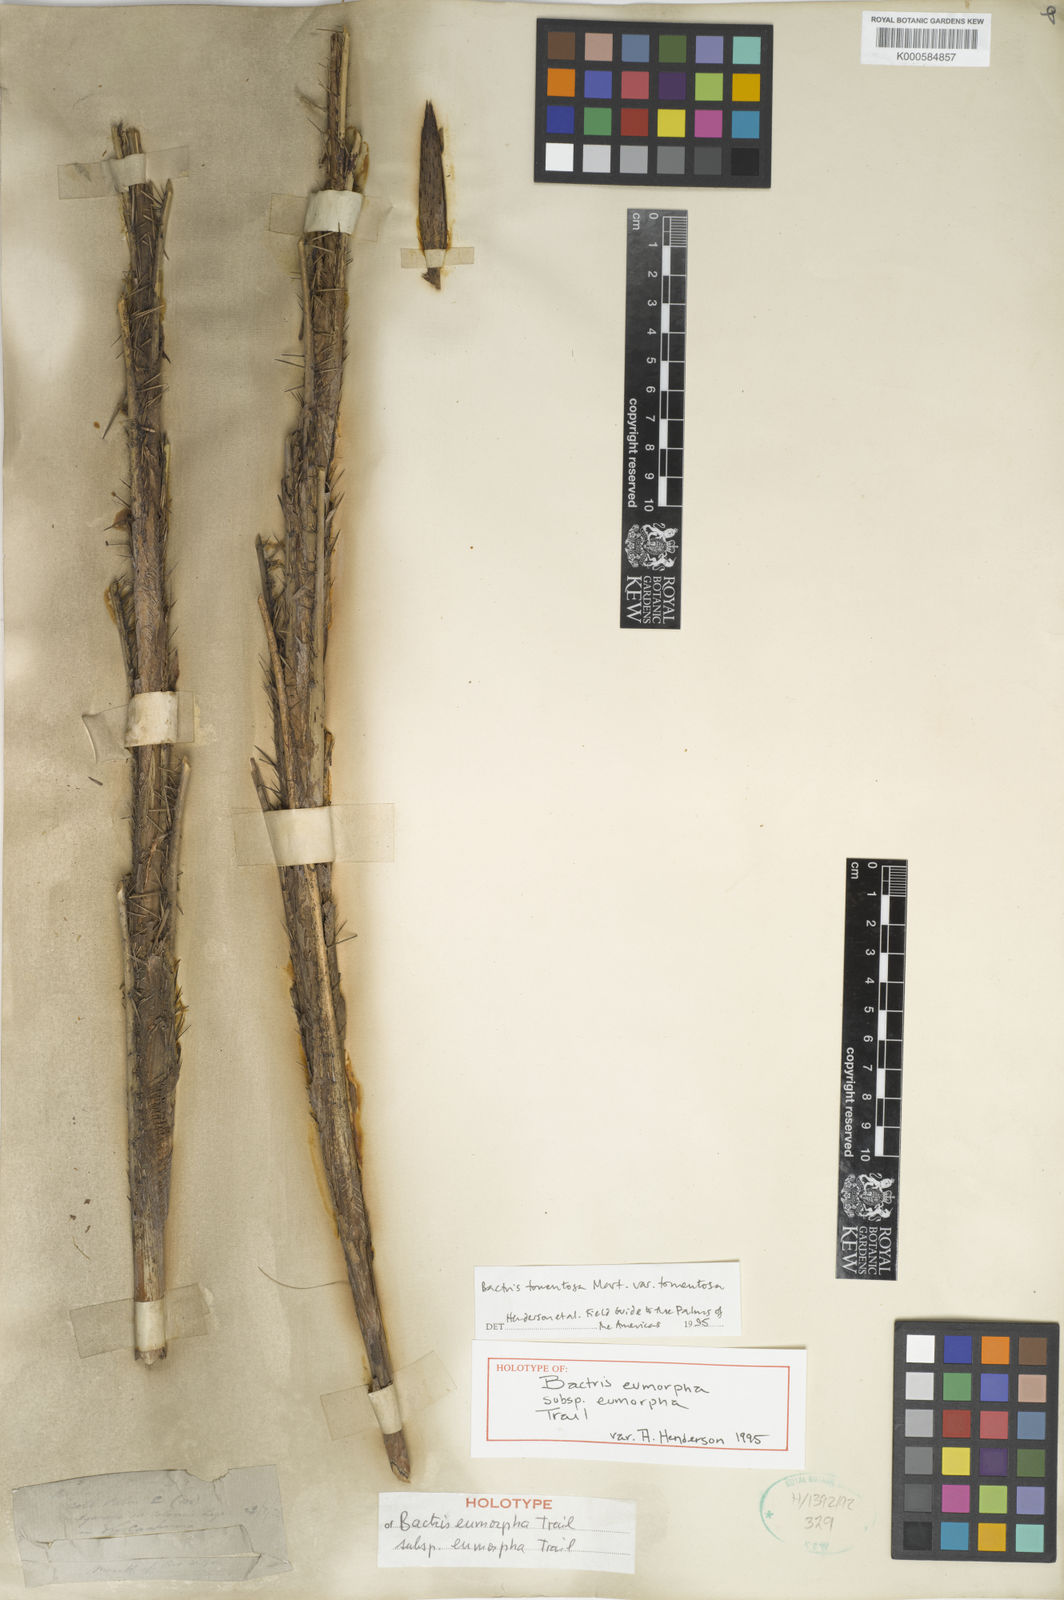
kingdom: Plantae
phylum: Tracheophyta
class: Liliopsida
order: Arecales
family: Arecaceae
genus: Bactris
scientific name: Bactris tomentosa
